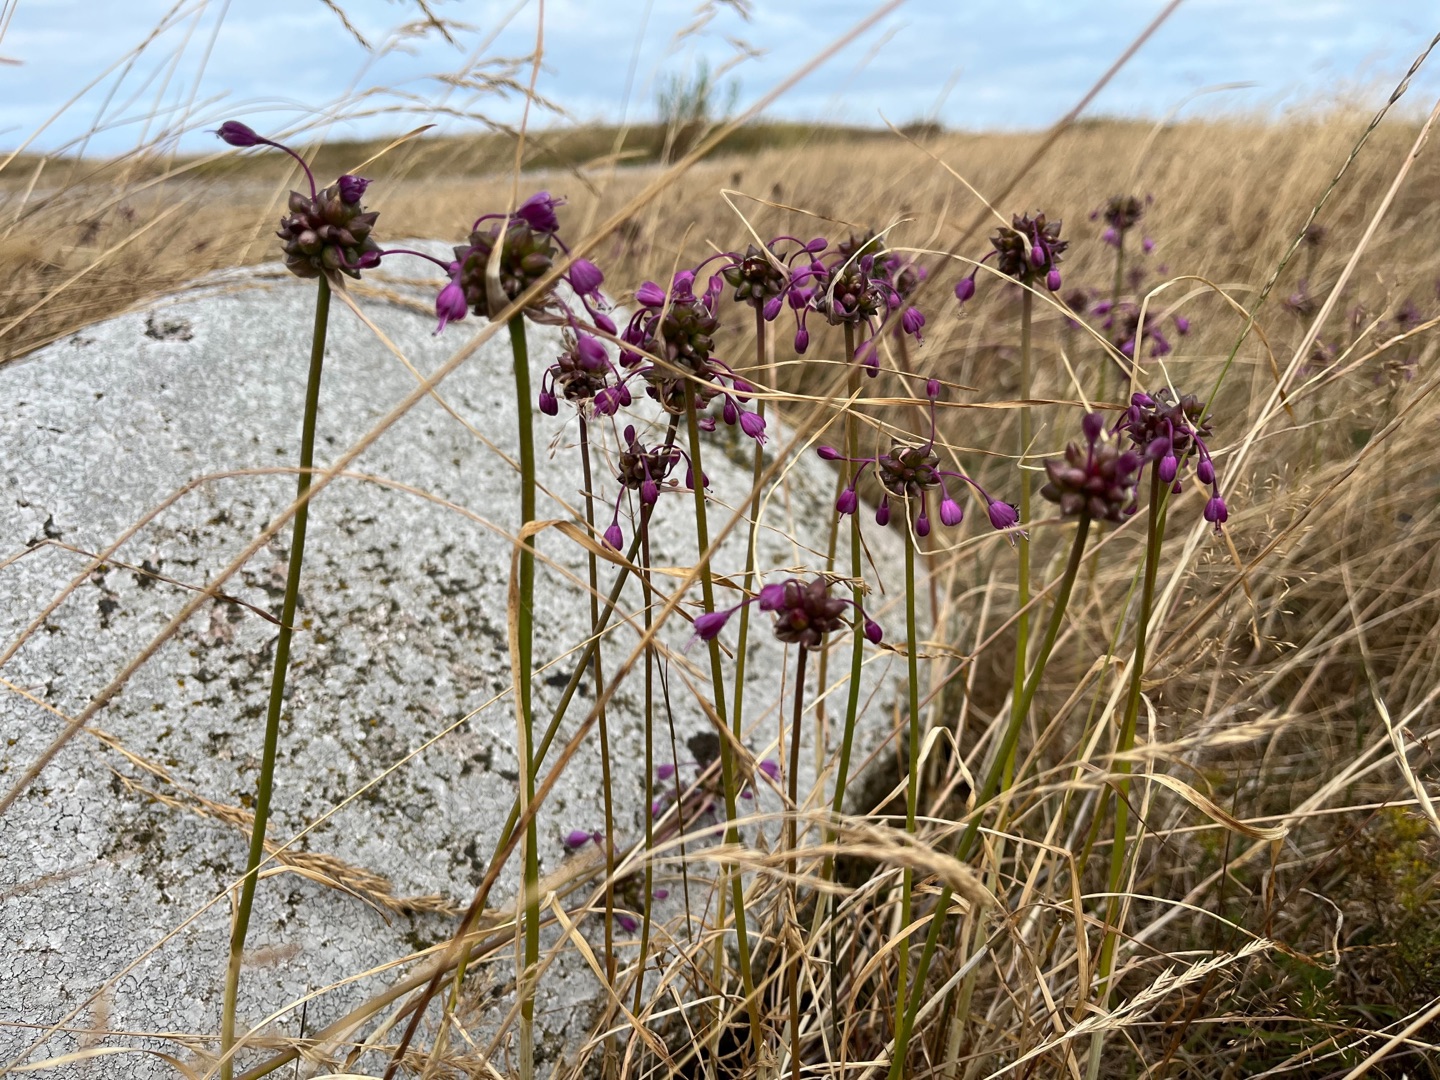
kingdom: Plantae
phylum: Tracheophyta
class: Liliopsida
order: Asparagales
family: Amaryllidaceae
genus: Allium
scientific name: Allium carinatum
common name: Kølet løg
